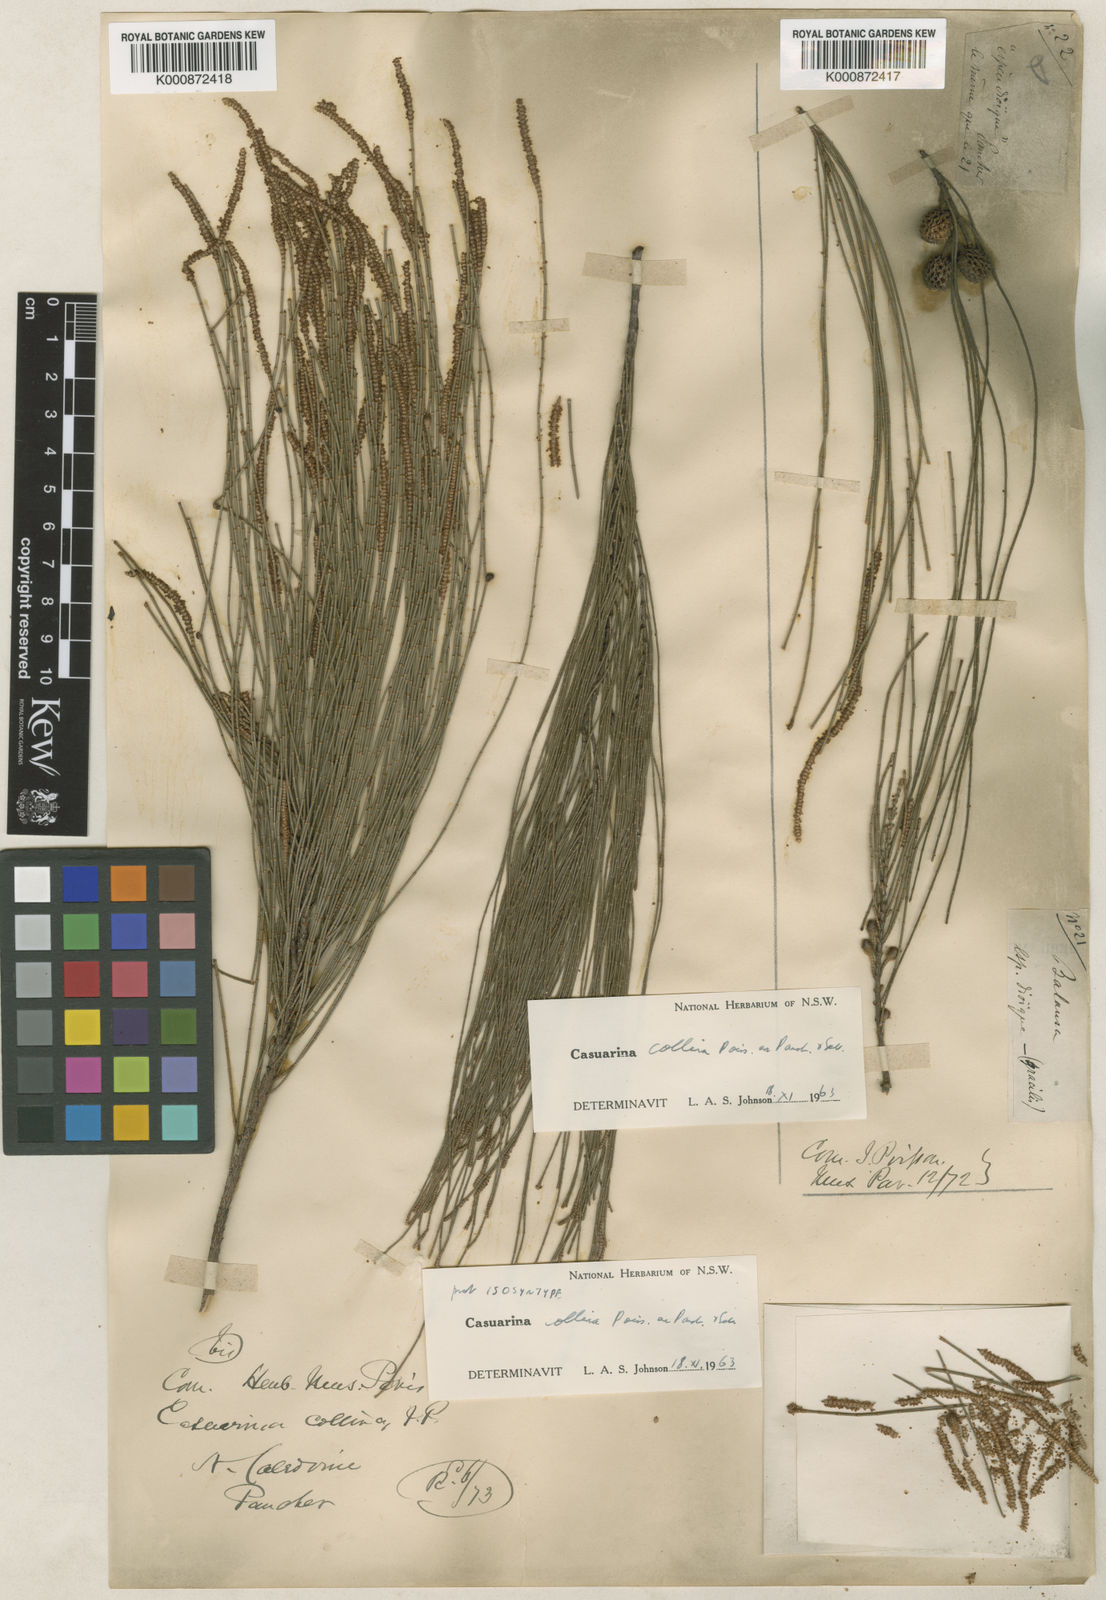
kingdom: Plantae
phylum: Tracheophyta
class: Magnoliopsida
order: Fagales
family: Casuarinaceae
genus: Casuarina
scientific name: Casuarina collina
